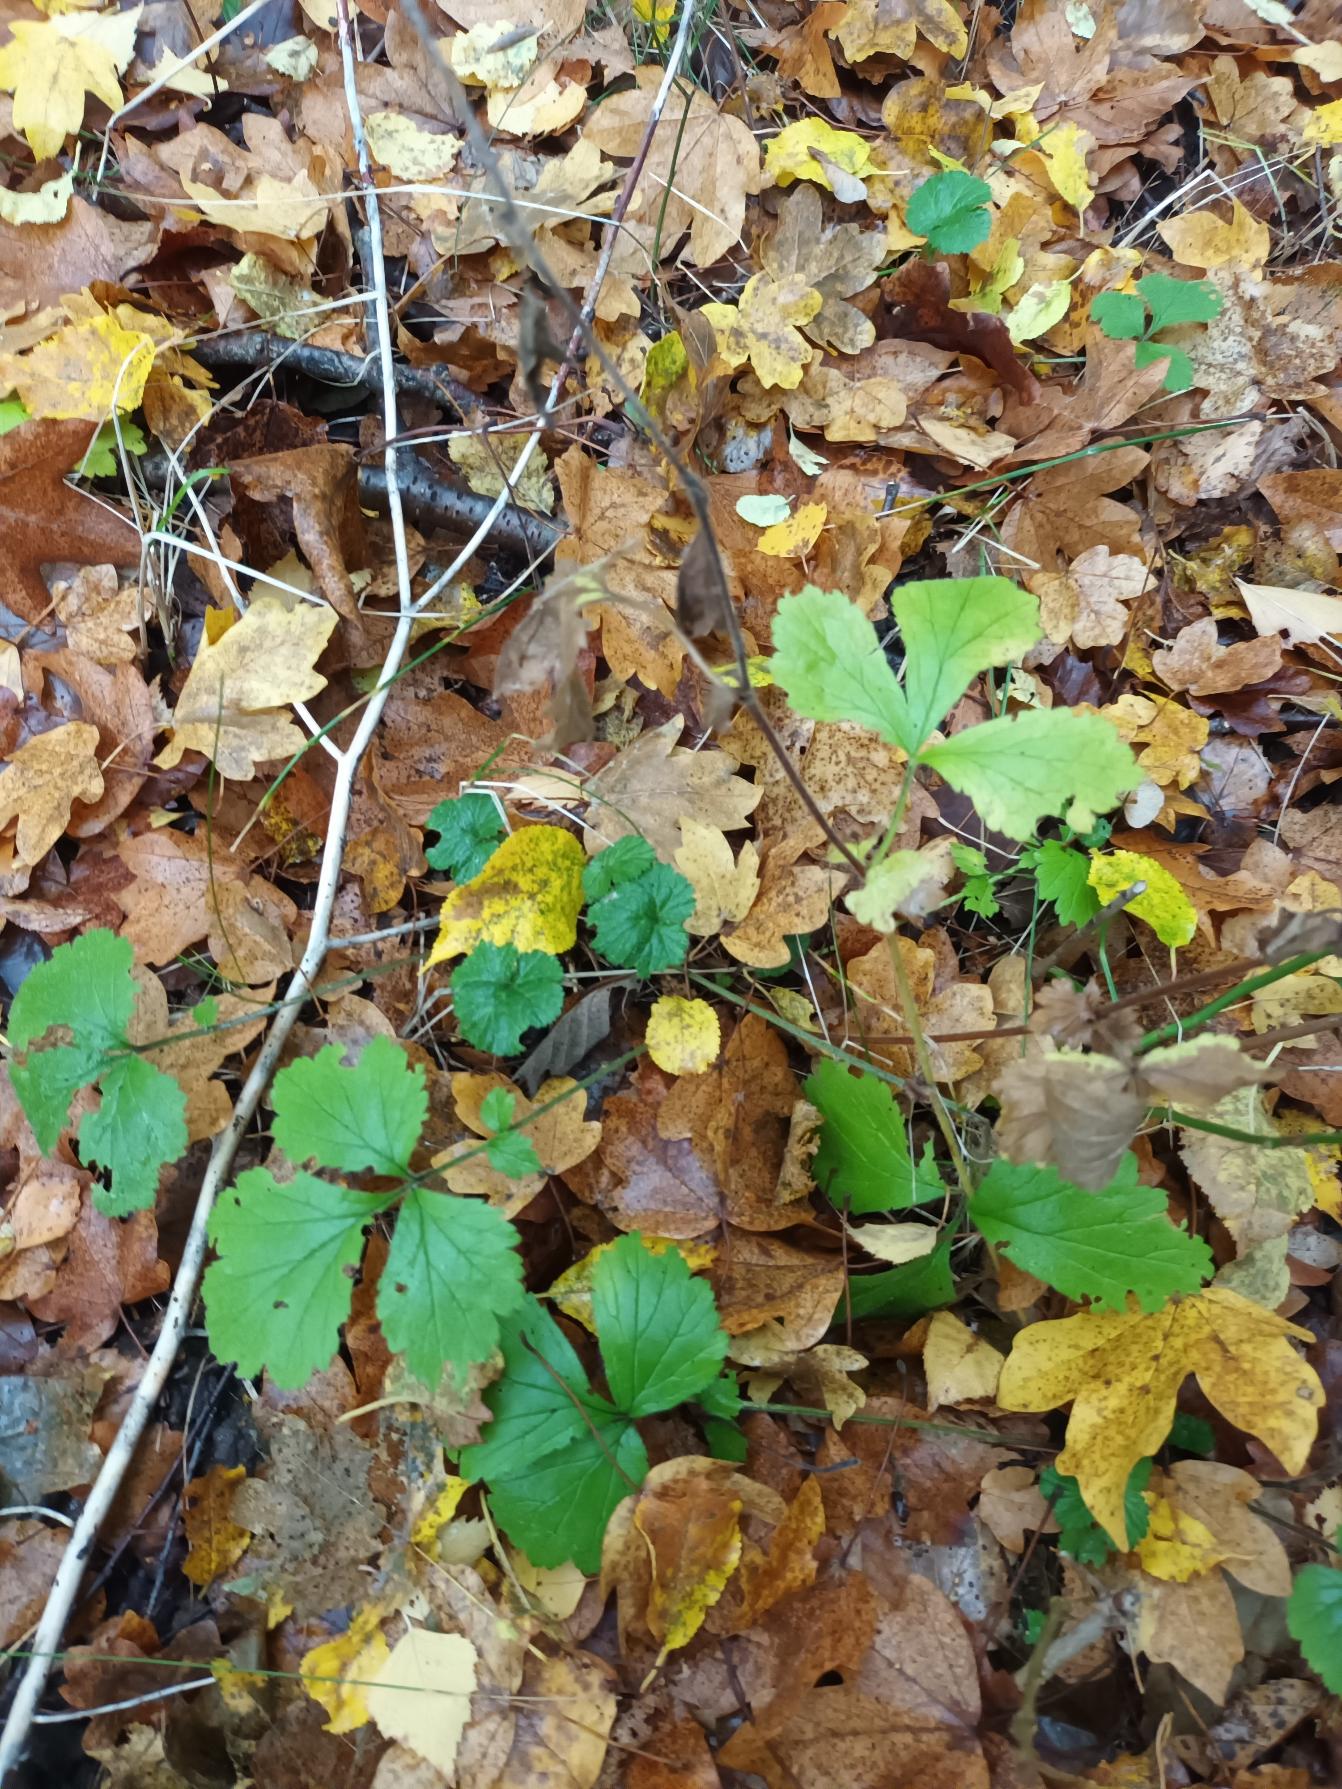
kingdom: Plantae
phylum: Tracheophyta
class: Magnoliopsida
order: Rosales
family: Rosaceae
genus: Geum
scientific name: Geum urbanum
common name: Feber-nellikerod
